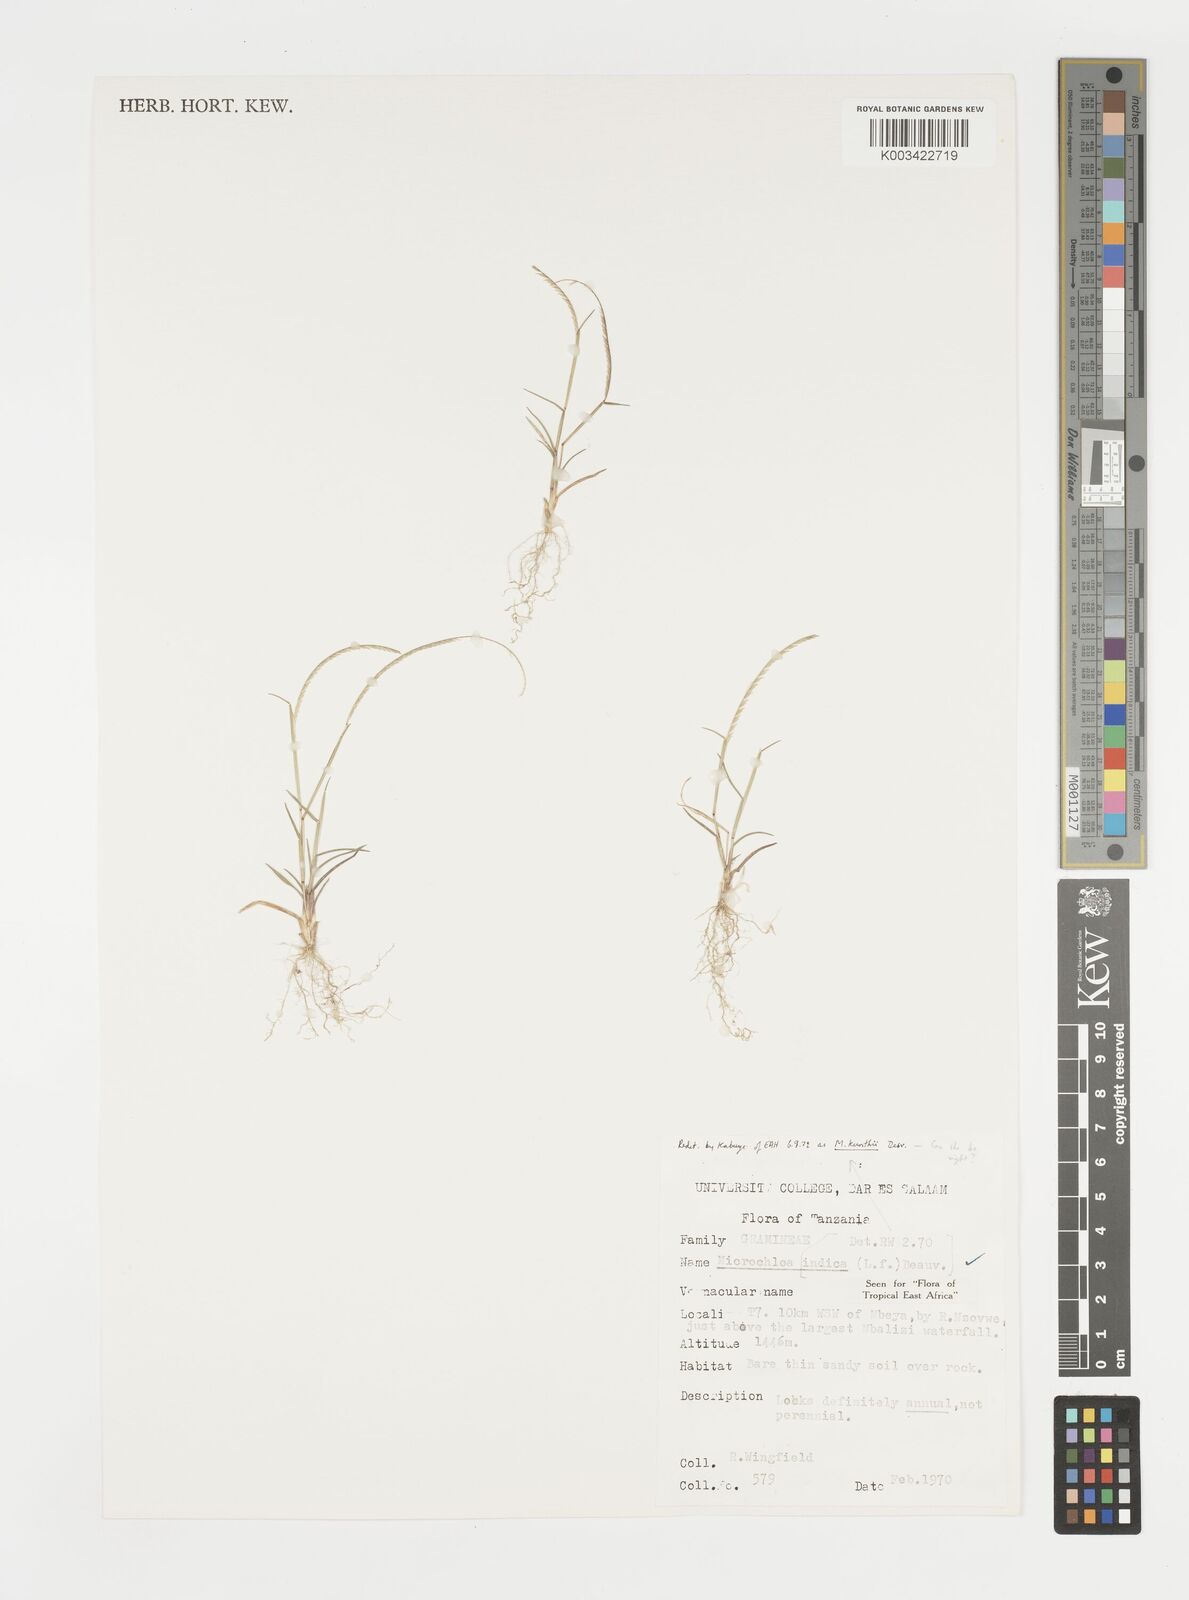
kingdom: Plantae
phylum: Tracheophyta
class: Liliopsida
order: Poales
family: Poaceae
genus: Microchloa
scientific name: Microchloa indica
